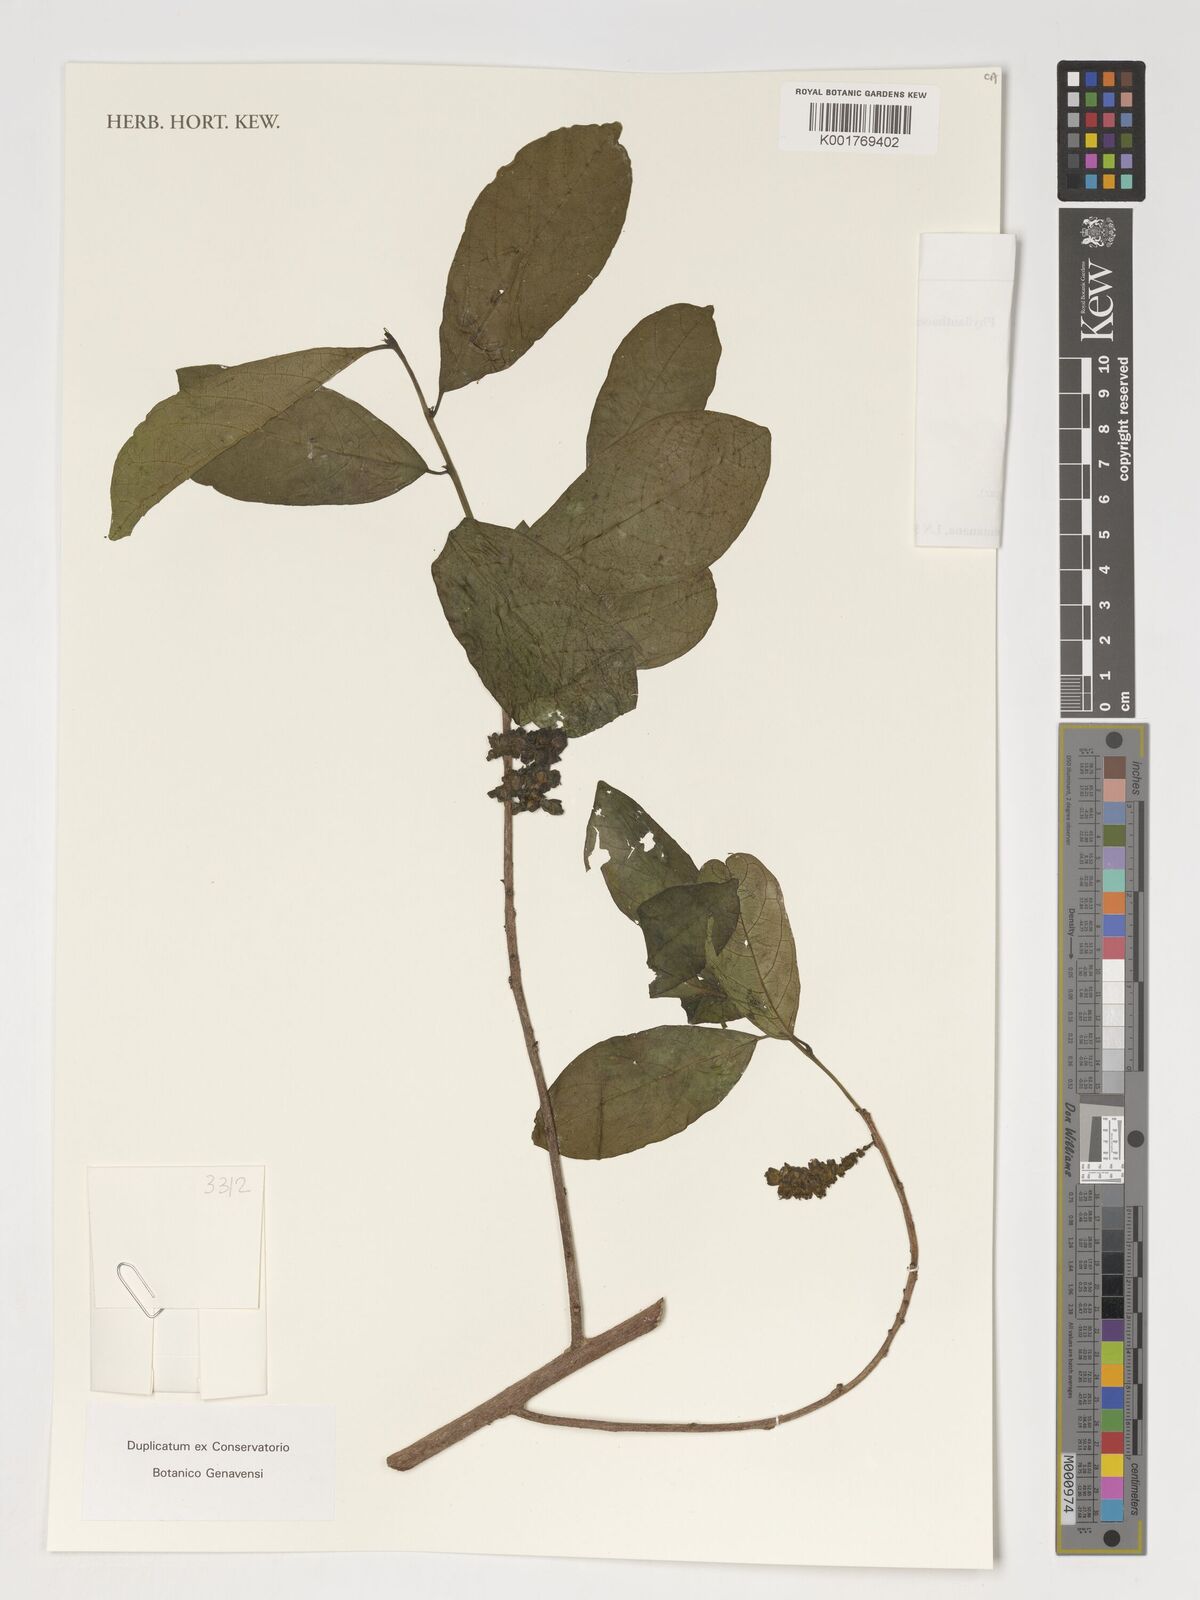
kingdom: Plantae
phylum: Tracheophyta
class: Magnoliopsida
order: Malpighiales
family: Phyllanthaceae
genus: Antidesma
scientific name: Antidesma madagascariense
